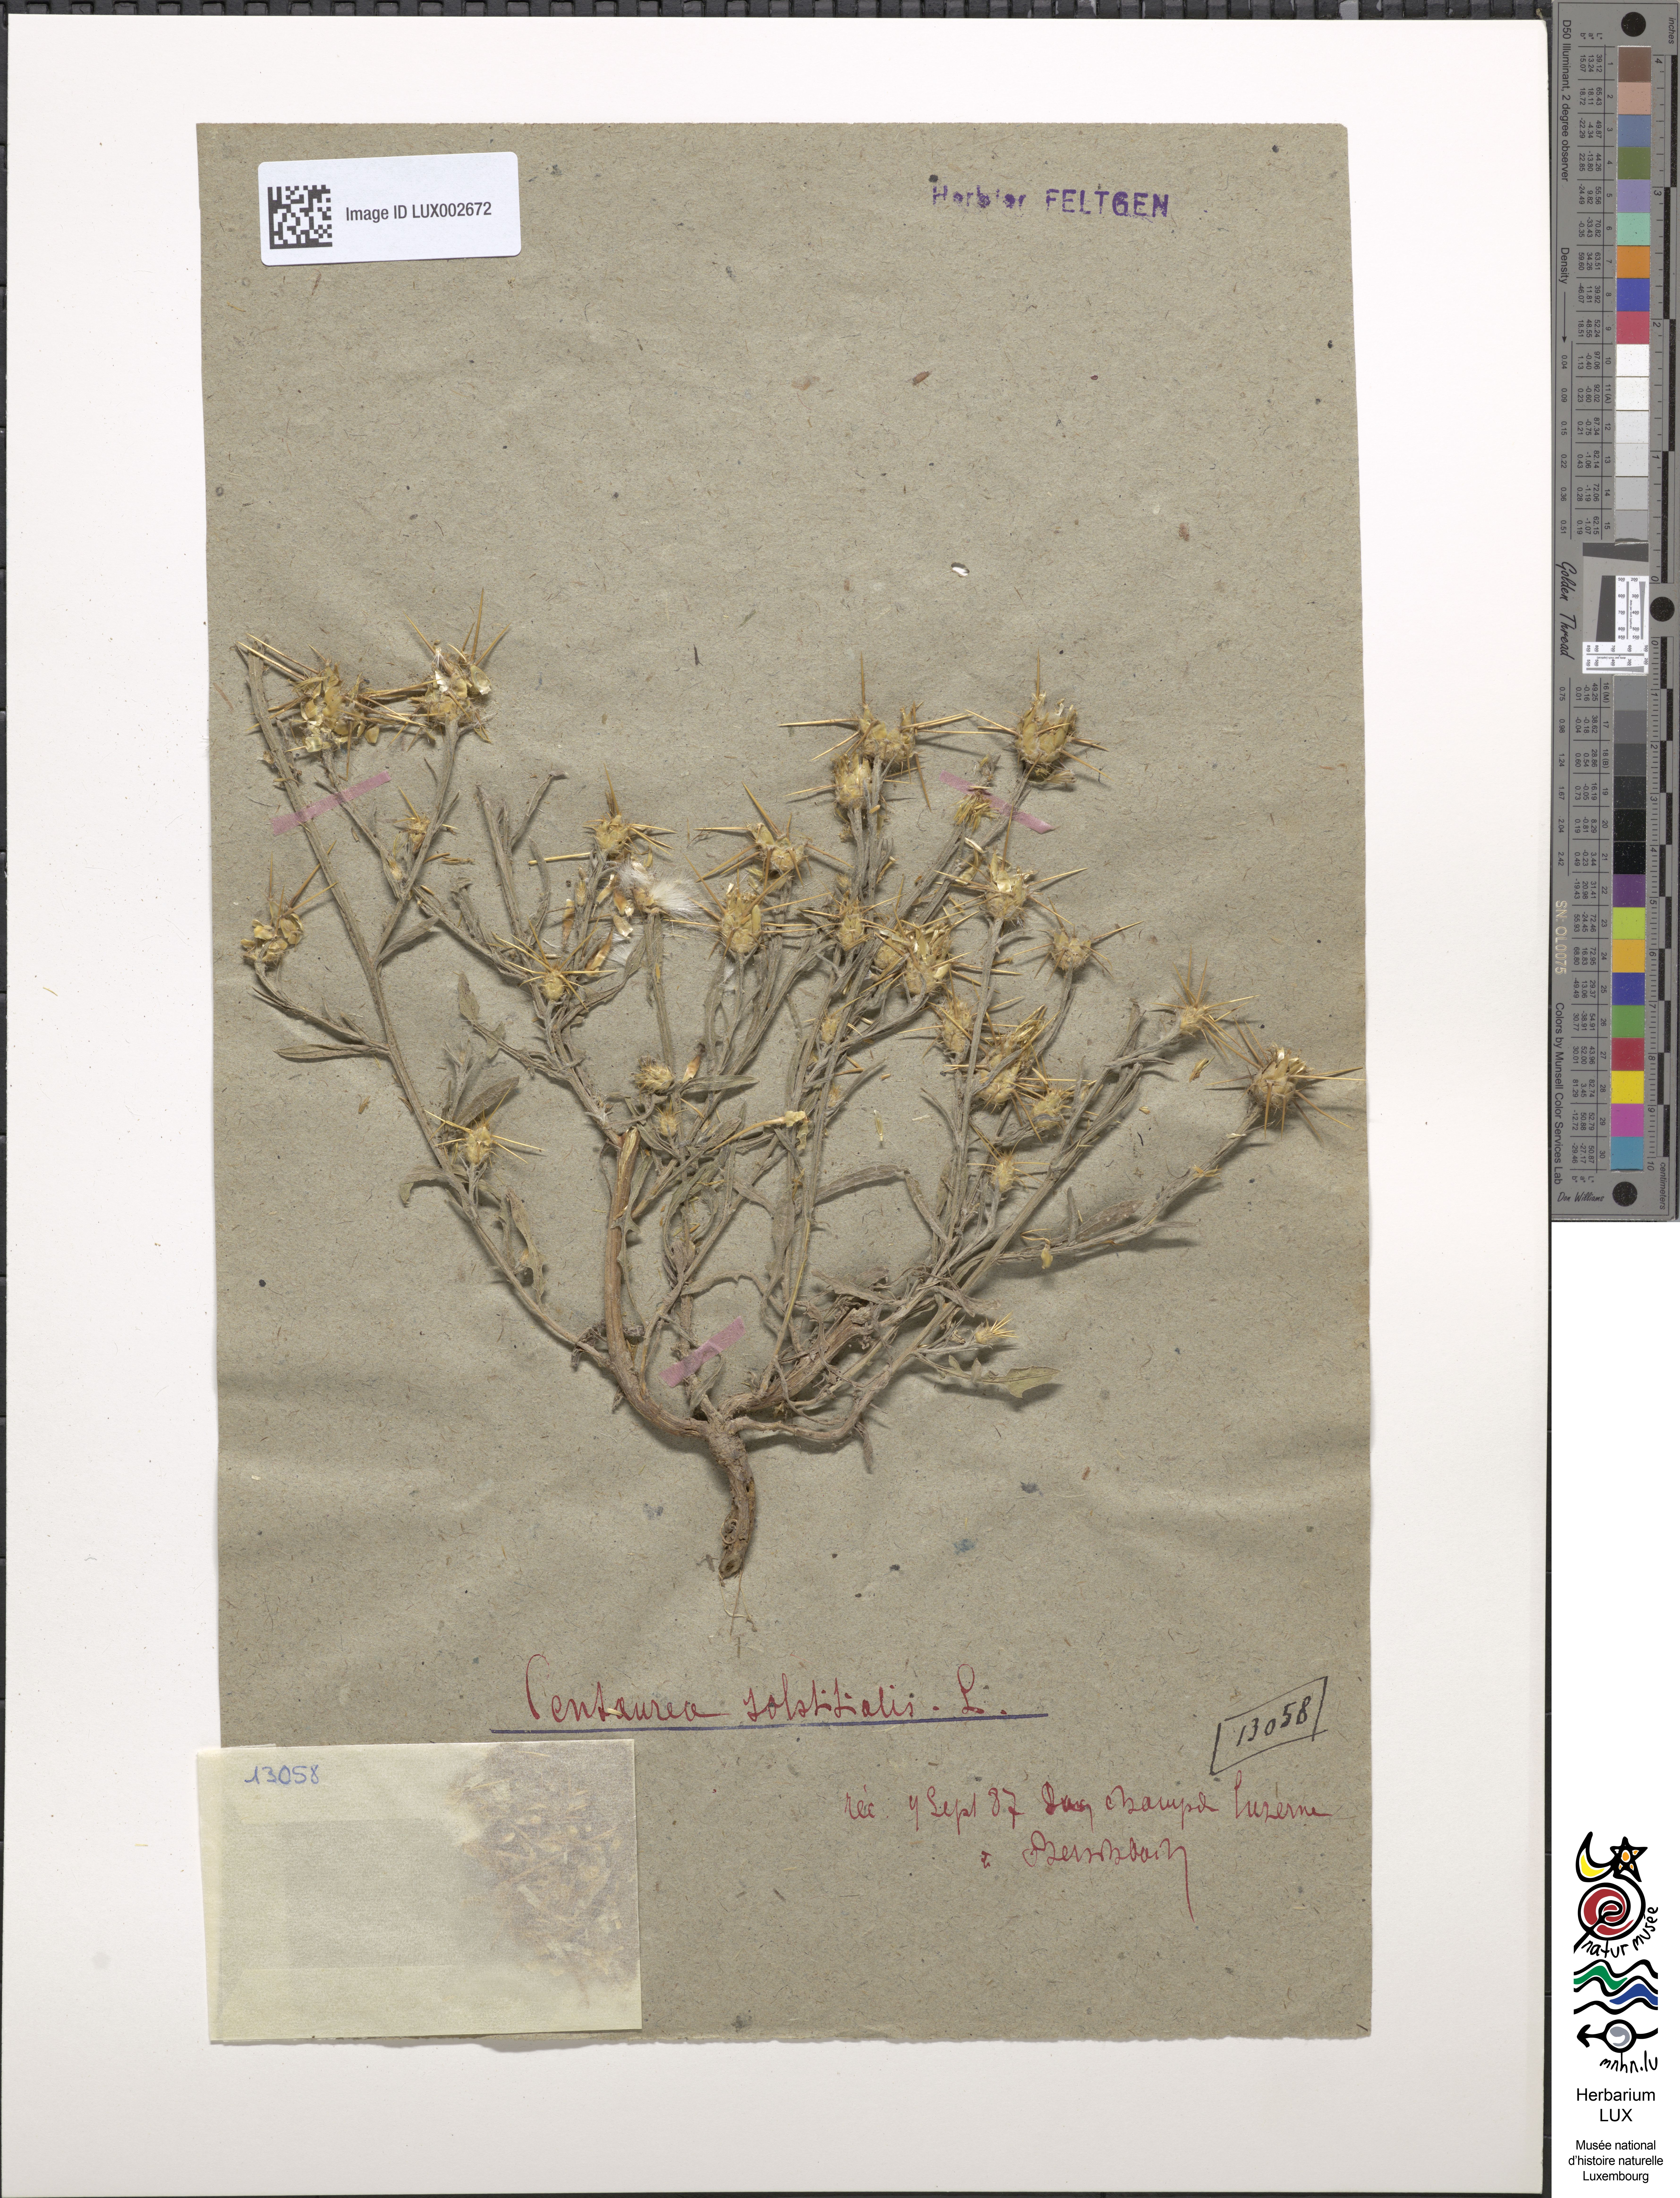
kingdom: Plantae
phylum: Tracheophyta
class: Magnoliopsida
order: Asterales
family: Asteraceae
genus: Centaurea
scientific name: Centaurea solstitialis
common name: Yellow star-thistle
